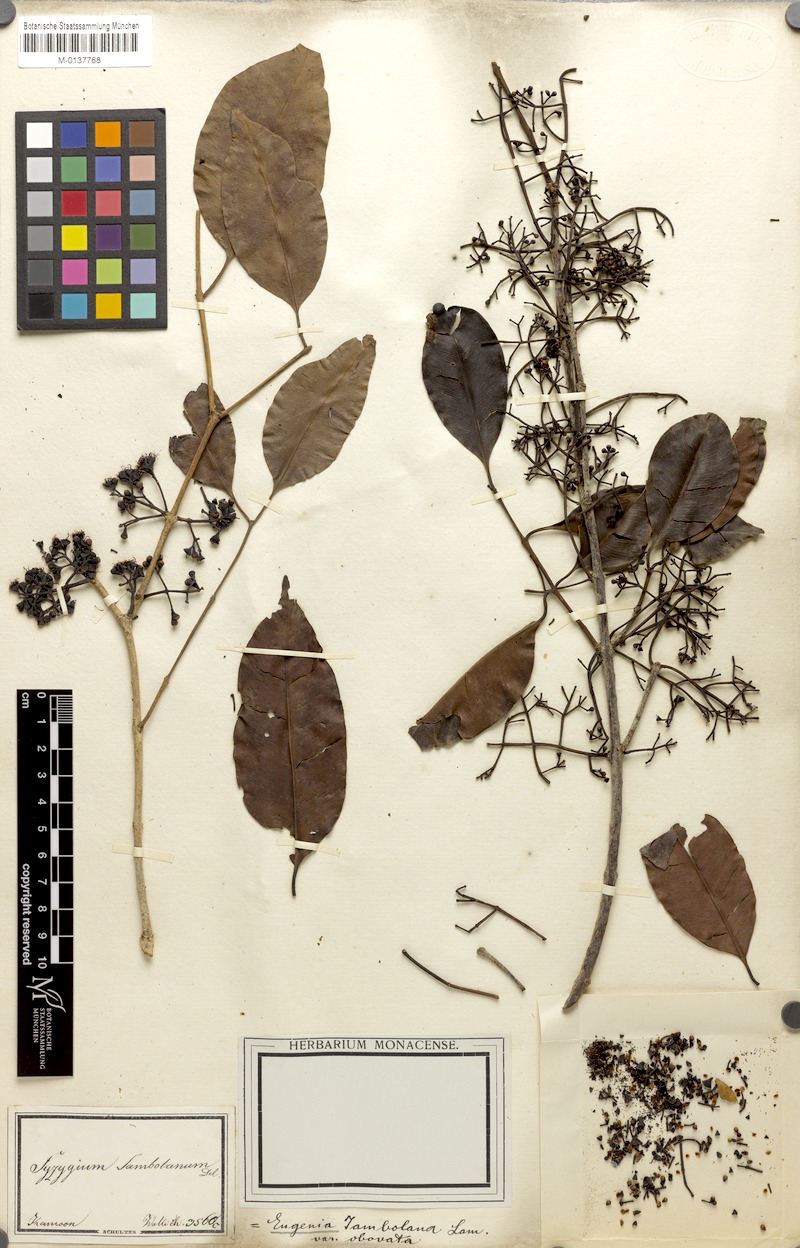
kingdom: Plantae
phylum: Tracheophyta
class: Magnoliopsida
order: Myrtales
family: Myrtaceae
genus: Syzygium
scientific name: Syzygium cumini
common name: Java plum
